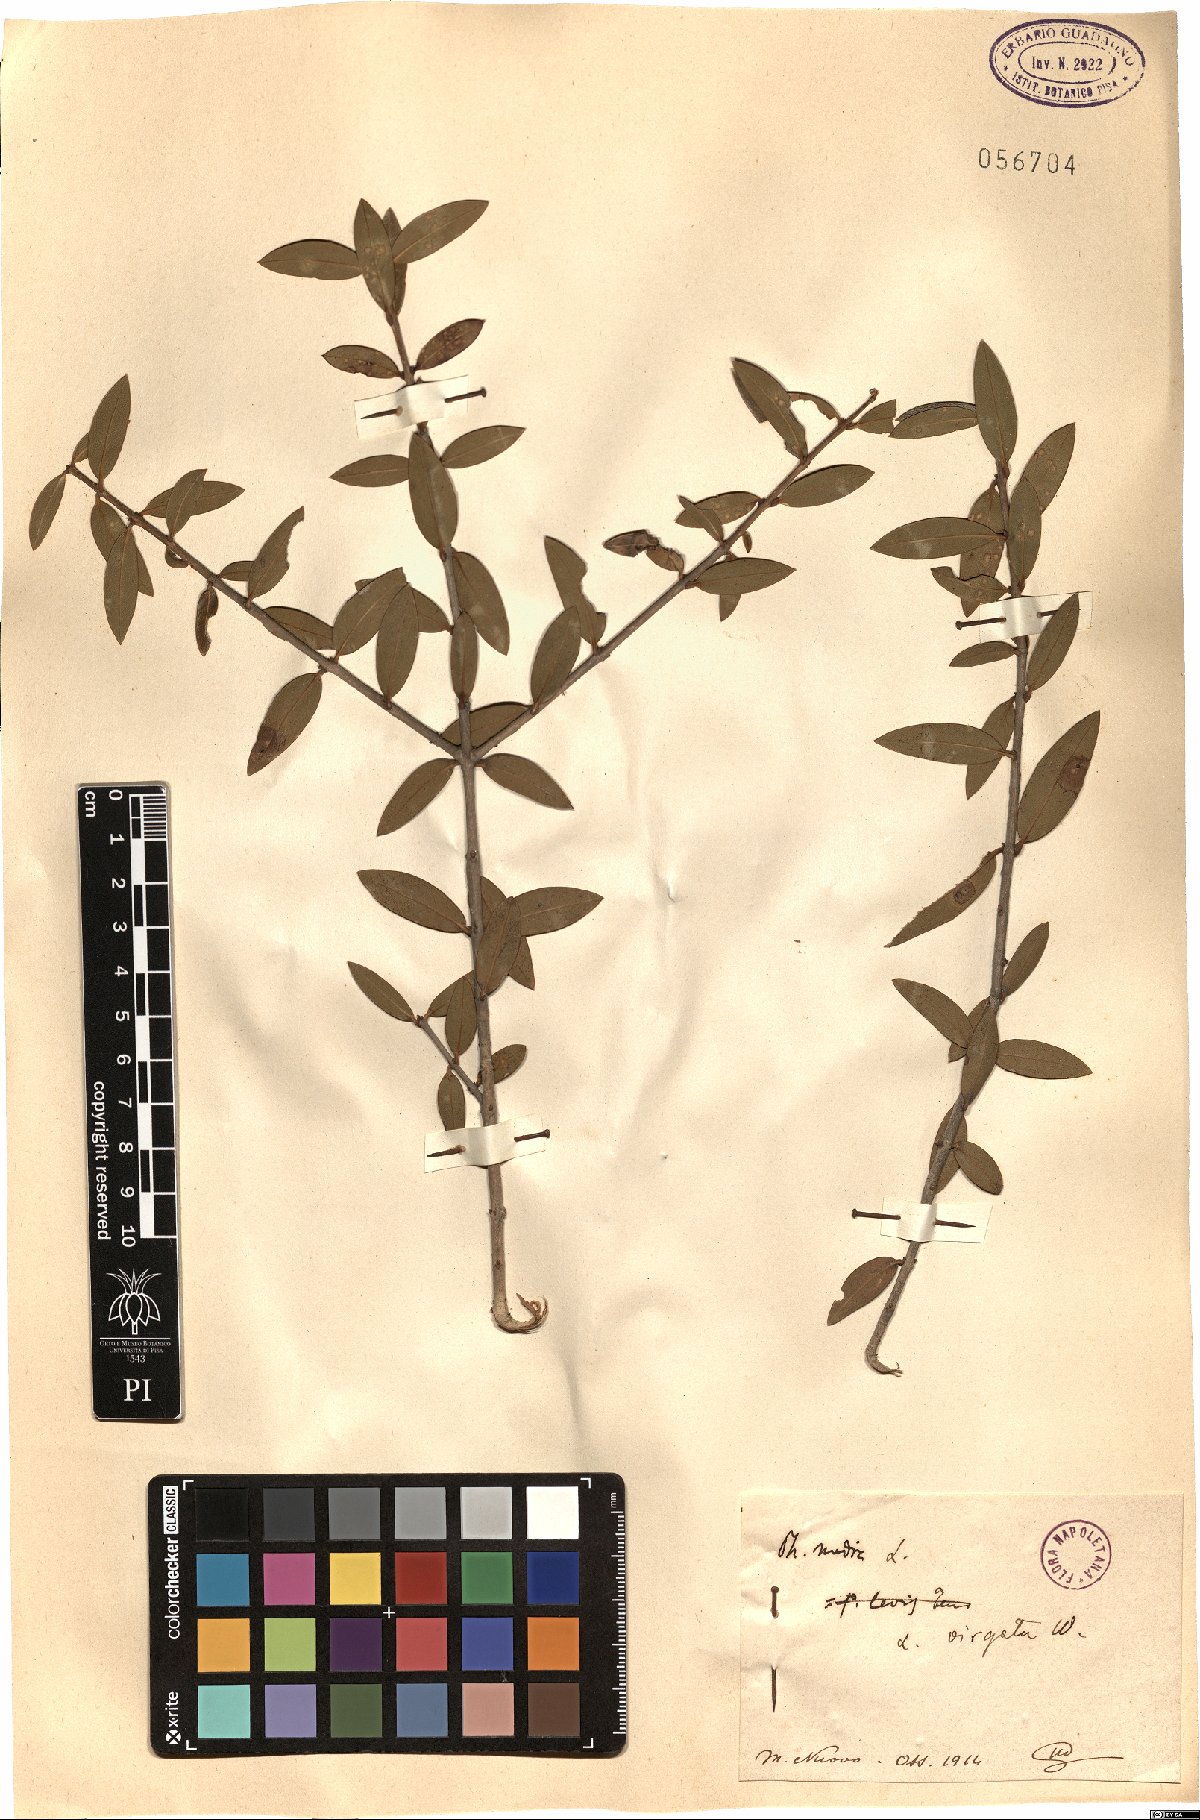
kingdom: Plantae
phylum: Tracheophyta
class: Magnoliopsida
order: Lamiales
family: Oleaceae
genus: Phillyrea
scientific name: Phillyrea latifolia
